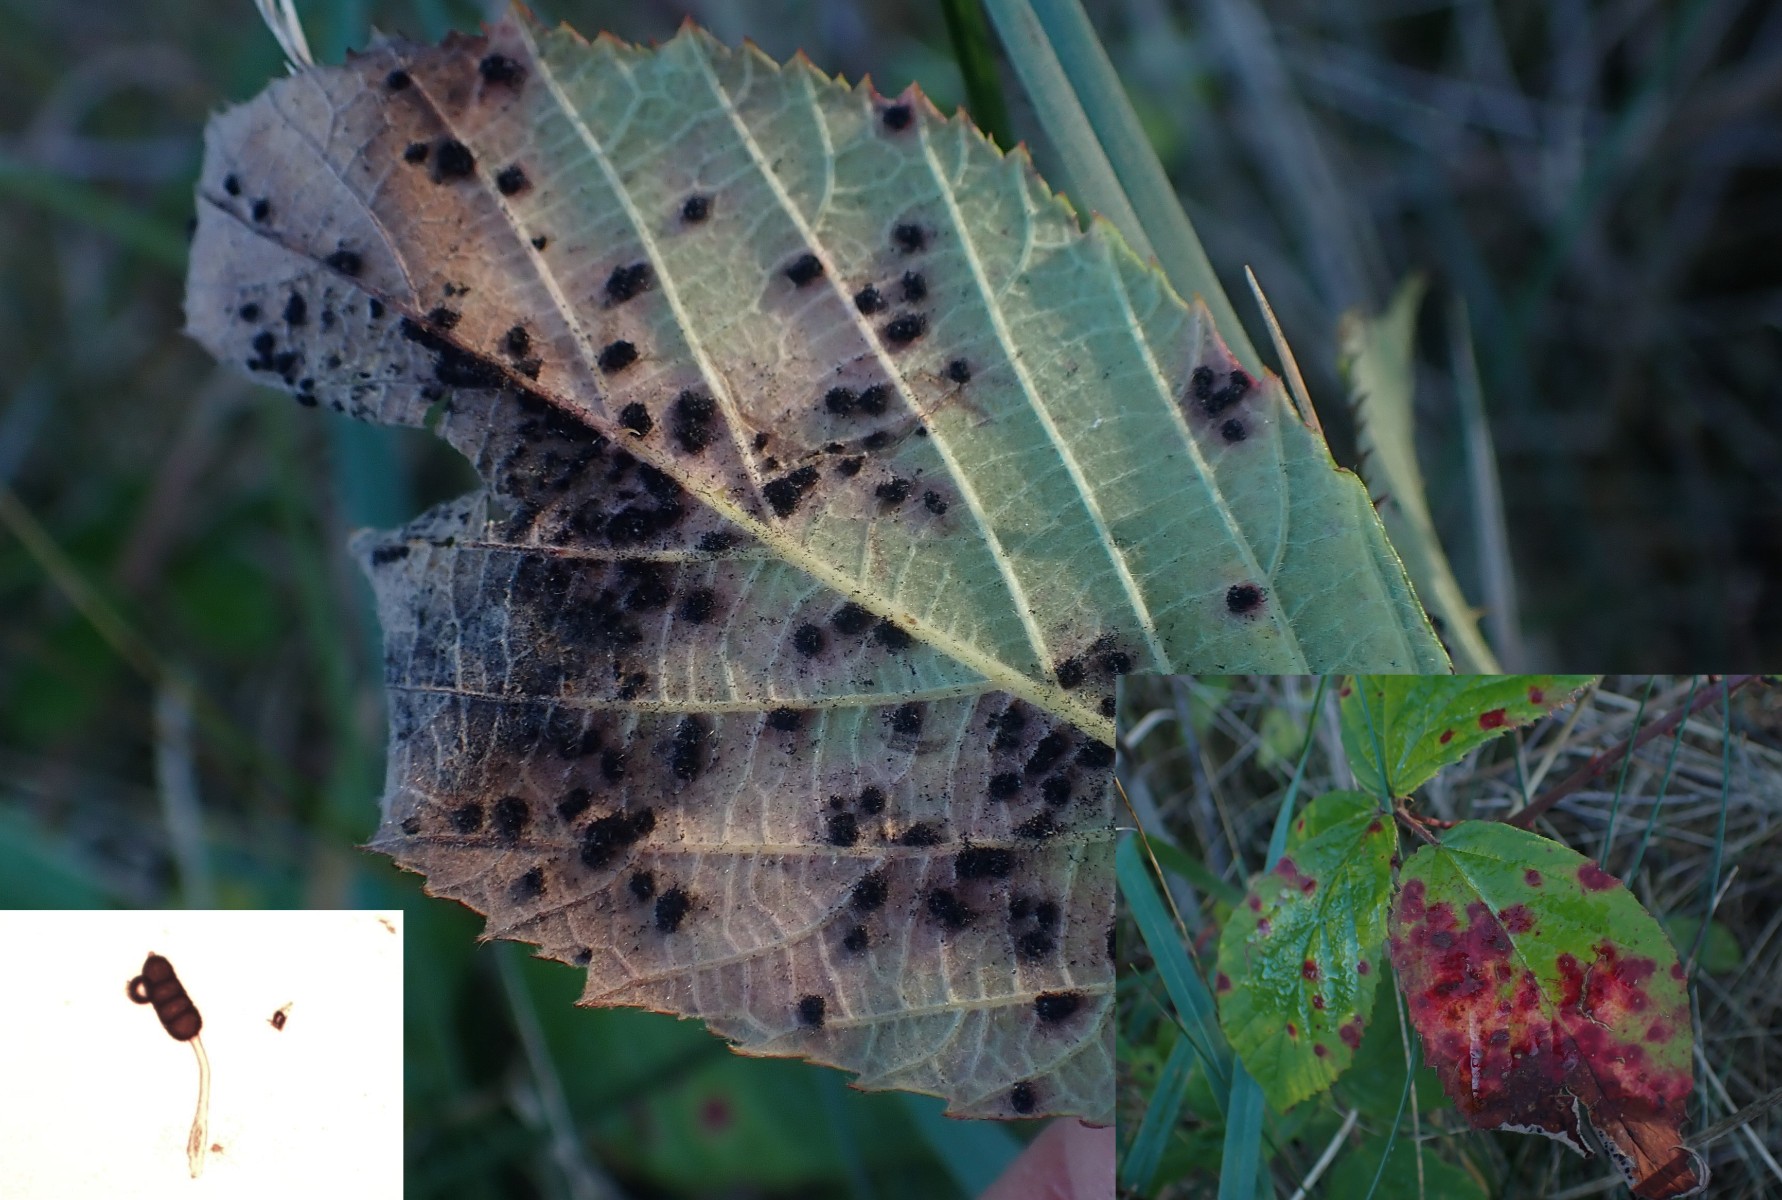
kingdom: Fungi
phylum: Basidiomycota
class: Pucciniomycetes
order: Pucciniales
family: Phragmidiaceae
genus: Phragmidium
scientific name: Phragmidium violaceum
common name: violet flercellerust
